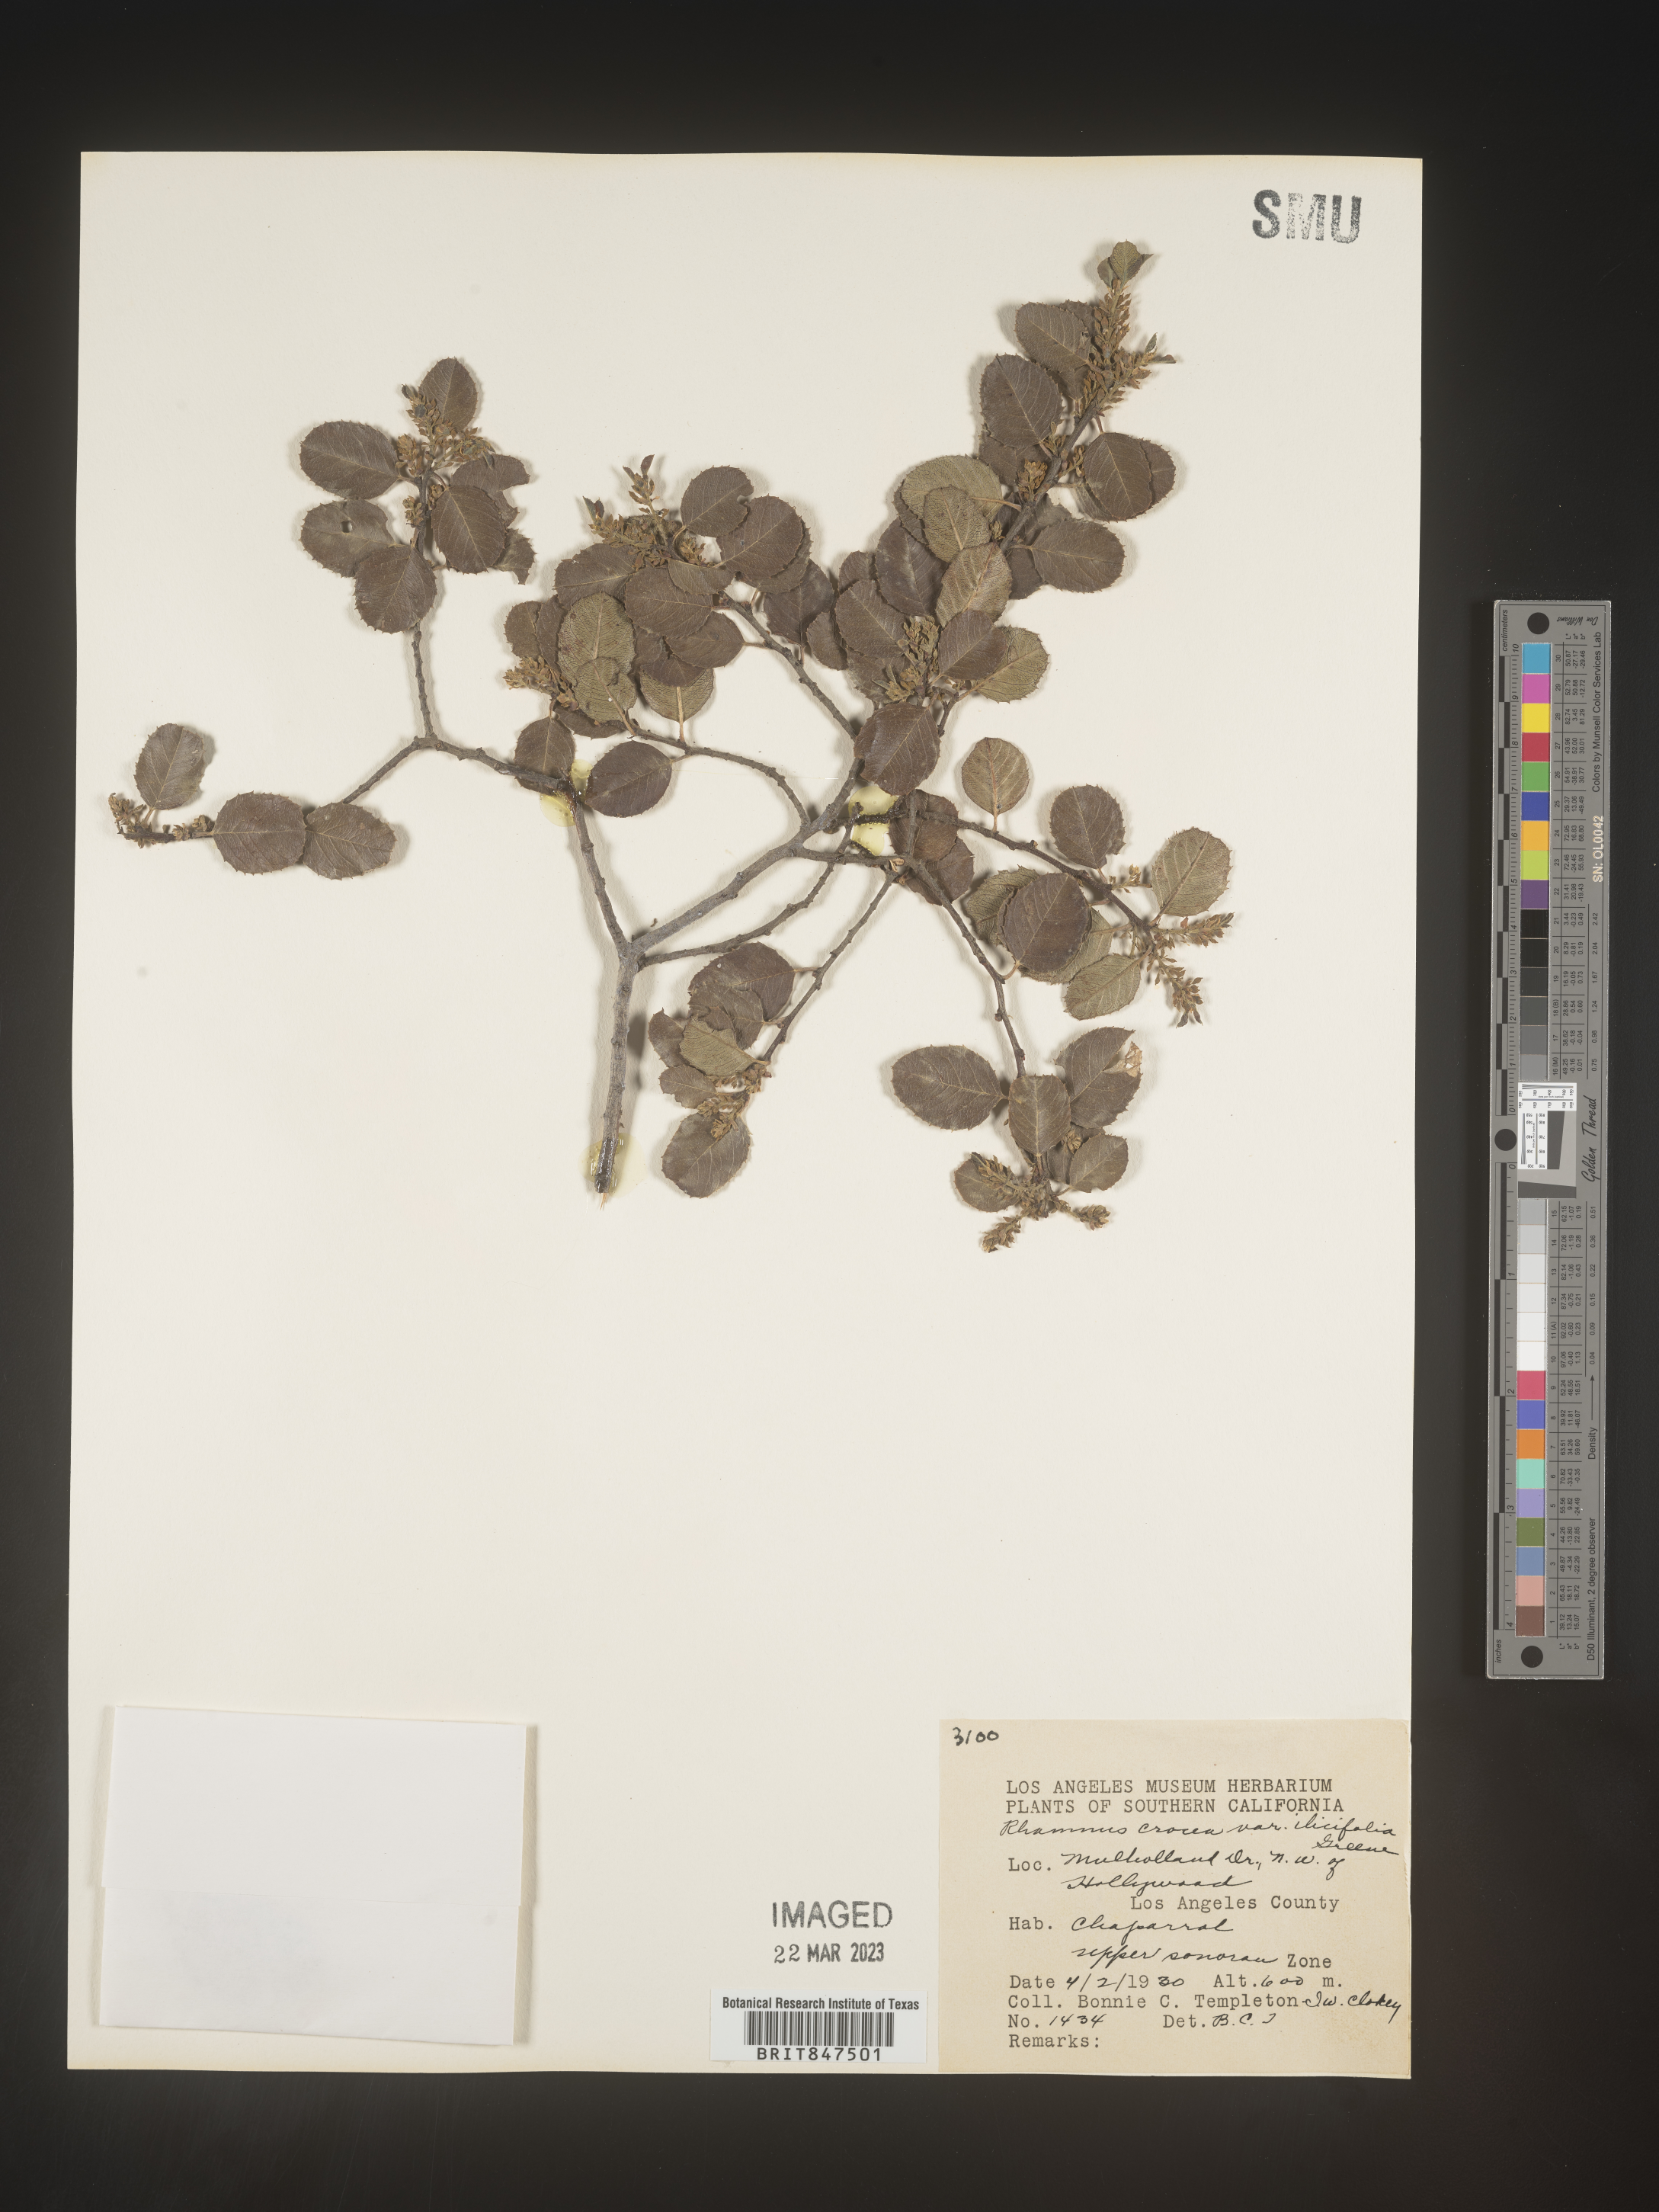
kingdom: Plantae
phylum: Tracheophyta
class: Magnoliopsida
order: Rosales
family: Rhamnaceae
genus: Endotropis
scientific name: Endotropis crocea
